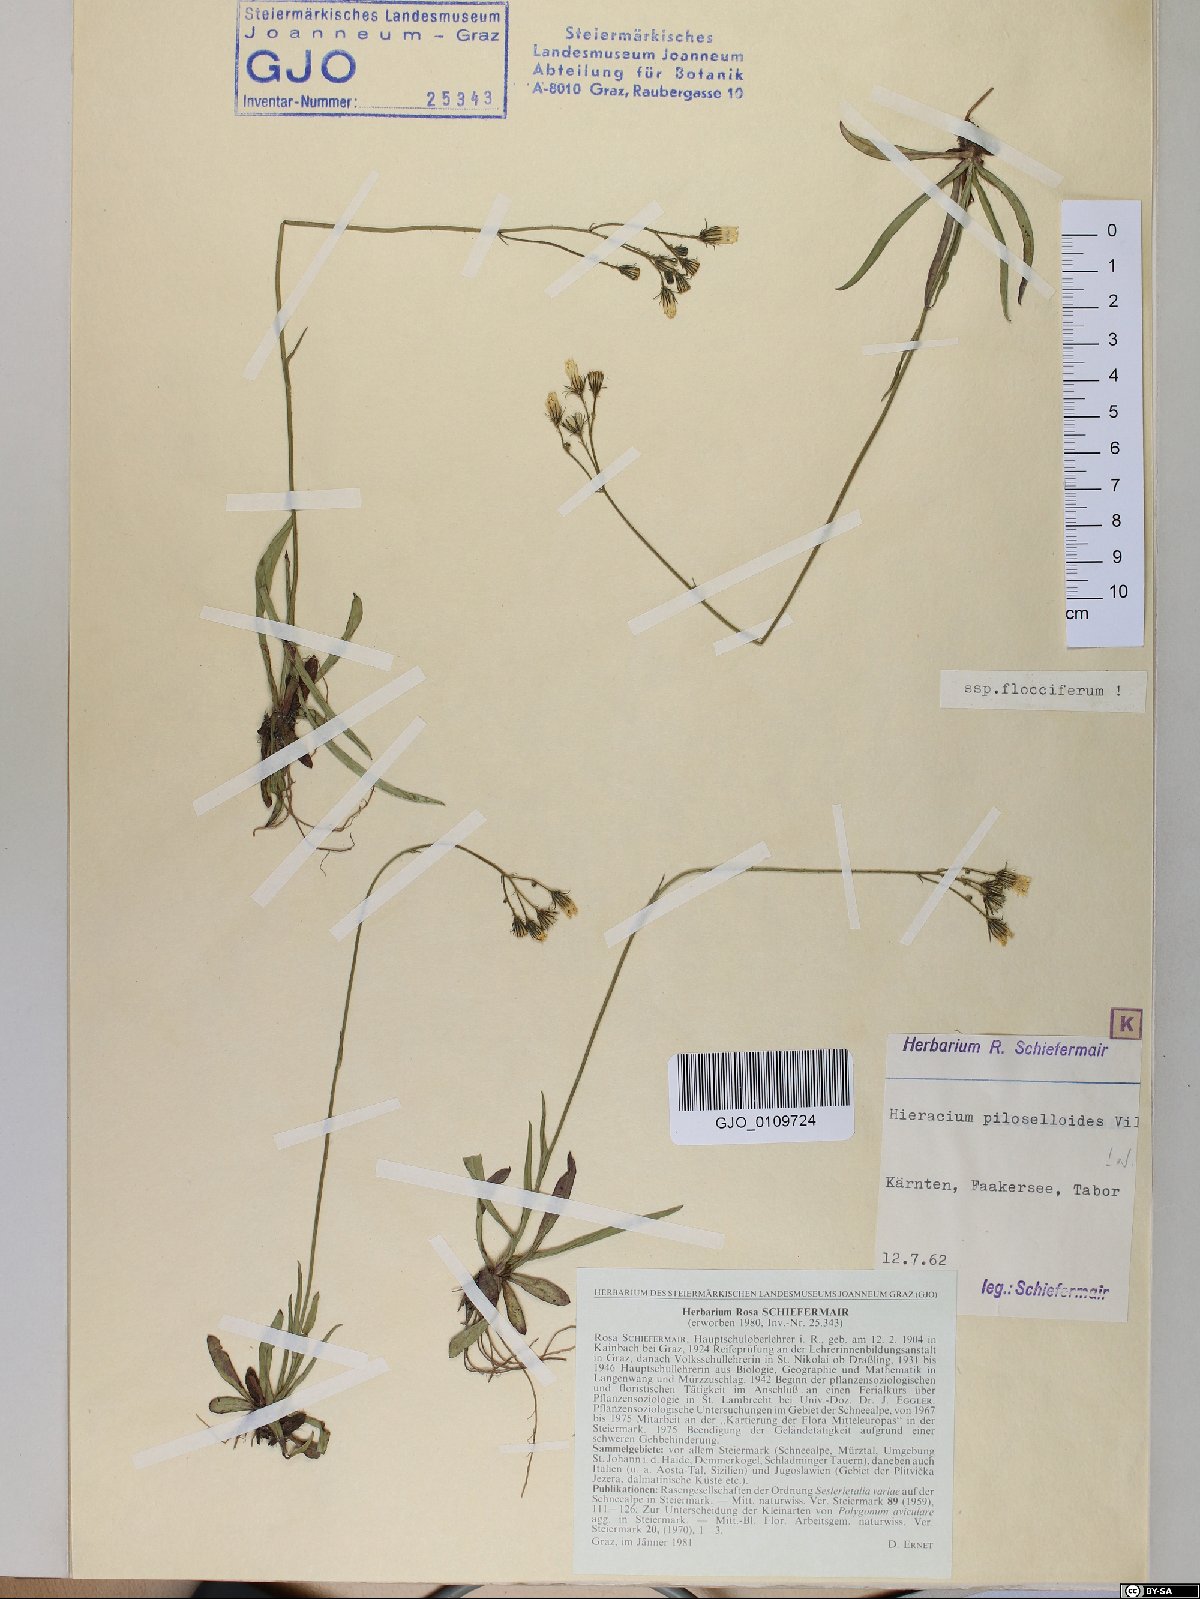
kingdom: Plantae
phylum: Tracheophyta
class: Magnoliopsida
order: Asterales
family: Asteraceae
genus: Pilosella
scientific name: Pilosella piloselloides
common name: Glaucous king-devil
